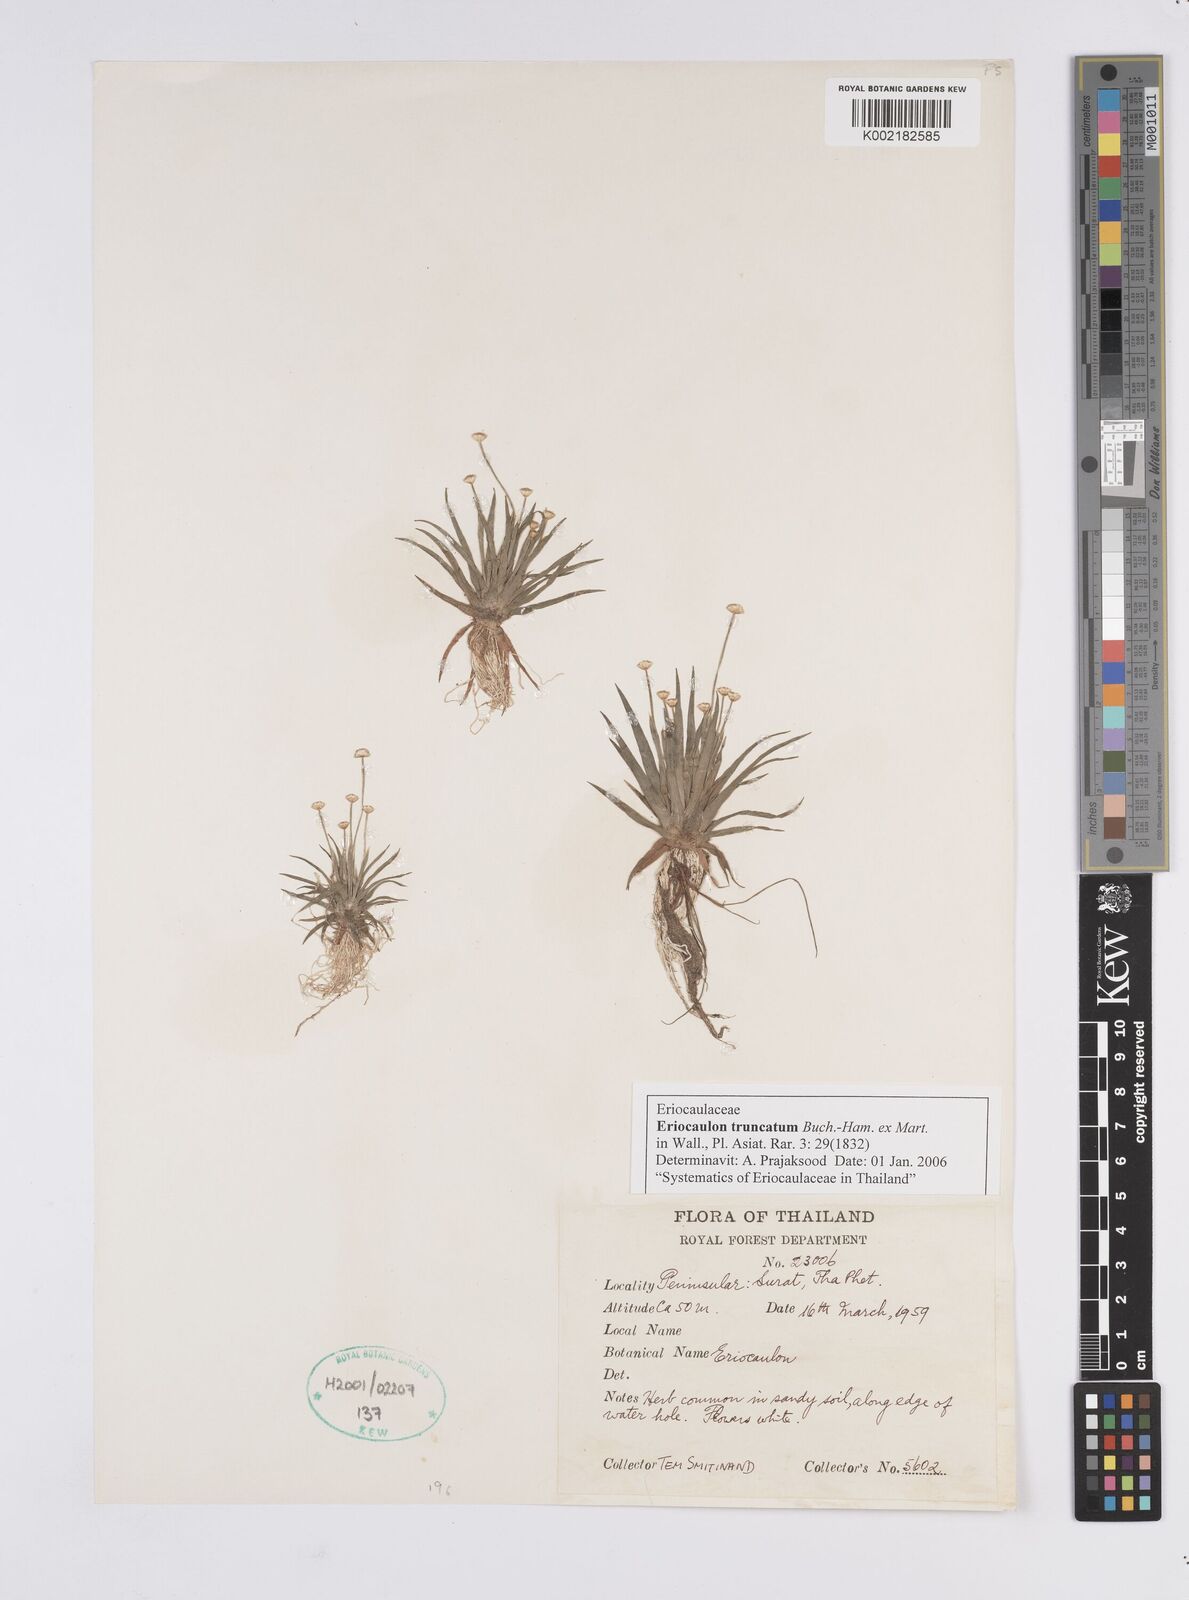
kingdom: Plantae
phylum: Tracheophyta
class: Liliopsida
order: Poales
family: Eriocaulaceae
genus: Eriocaulon
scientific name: Eriocaulon truncatum
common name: Short pipe-wort
